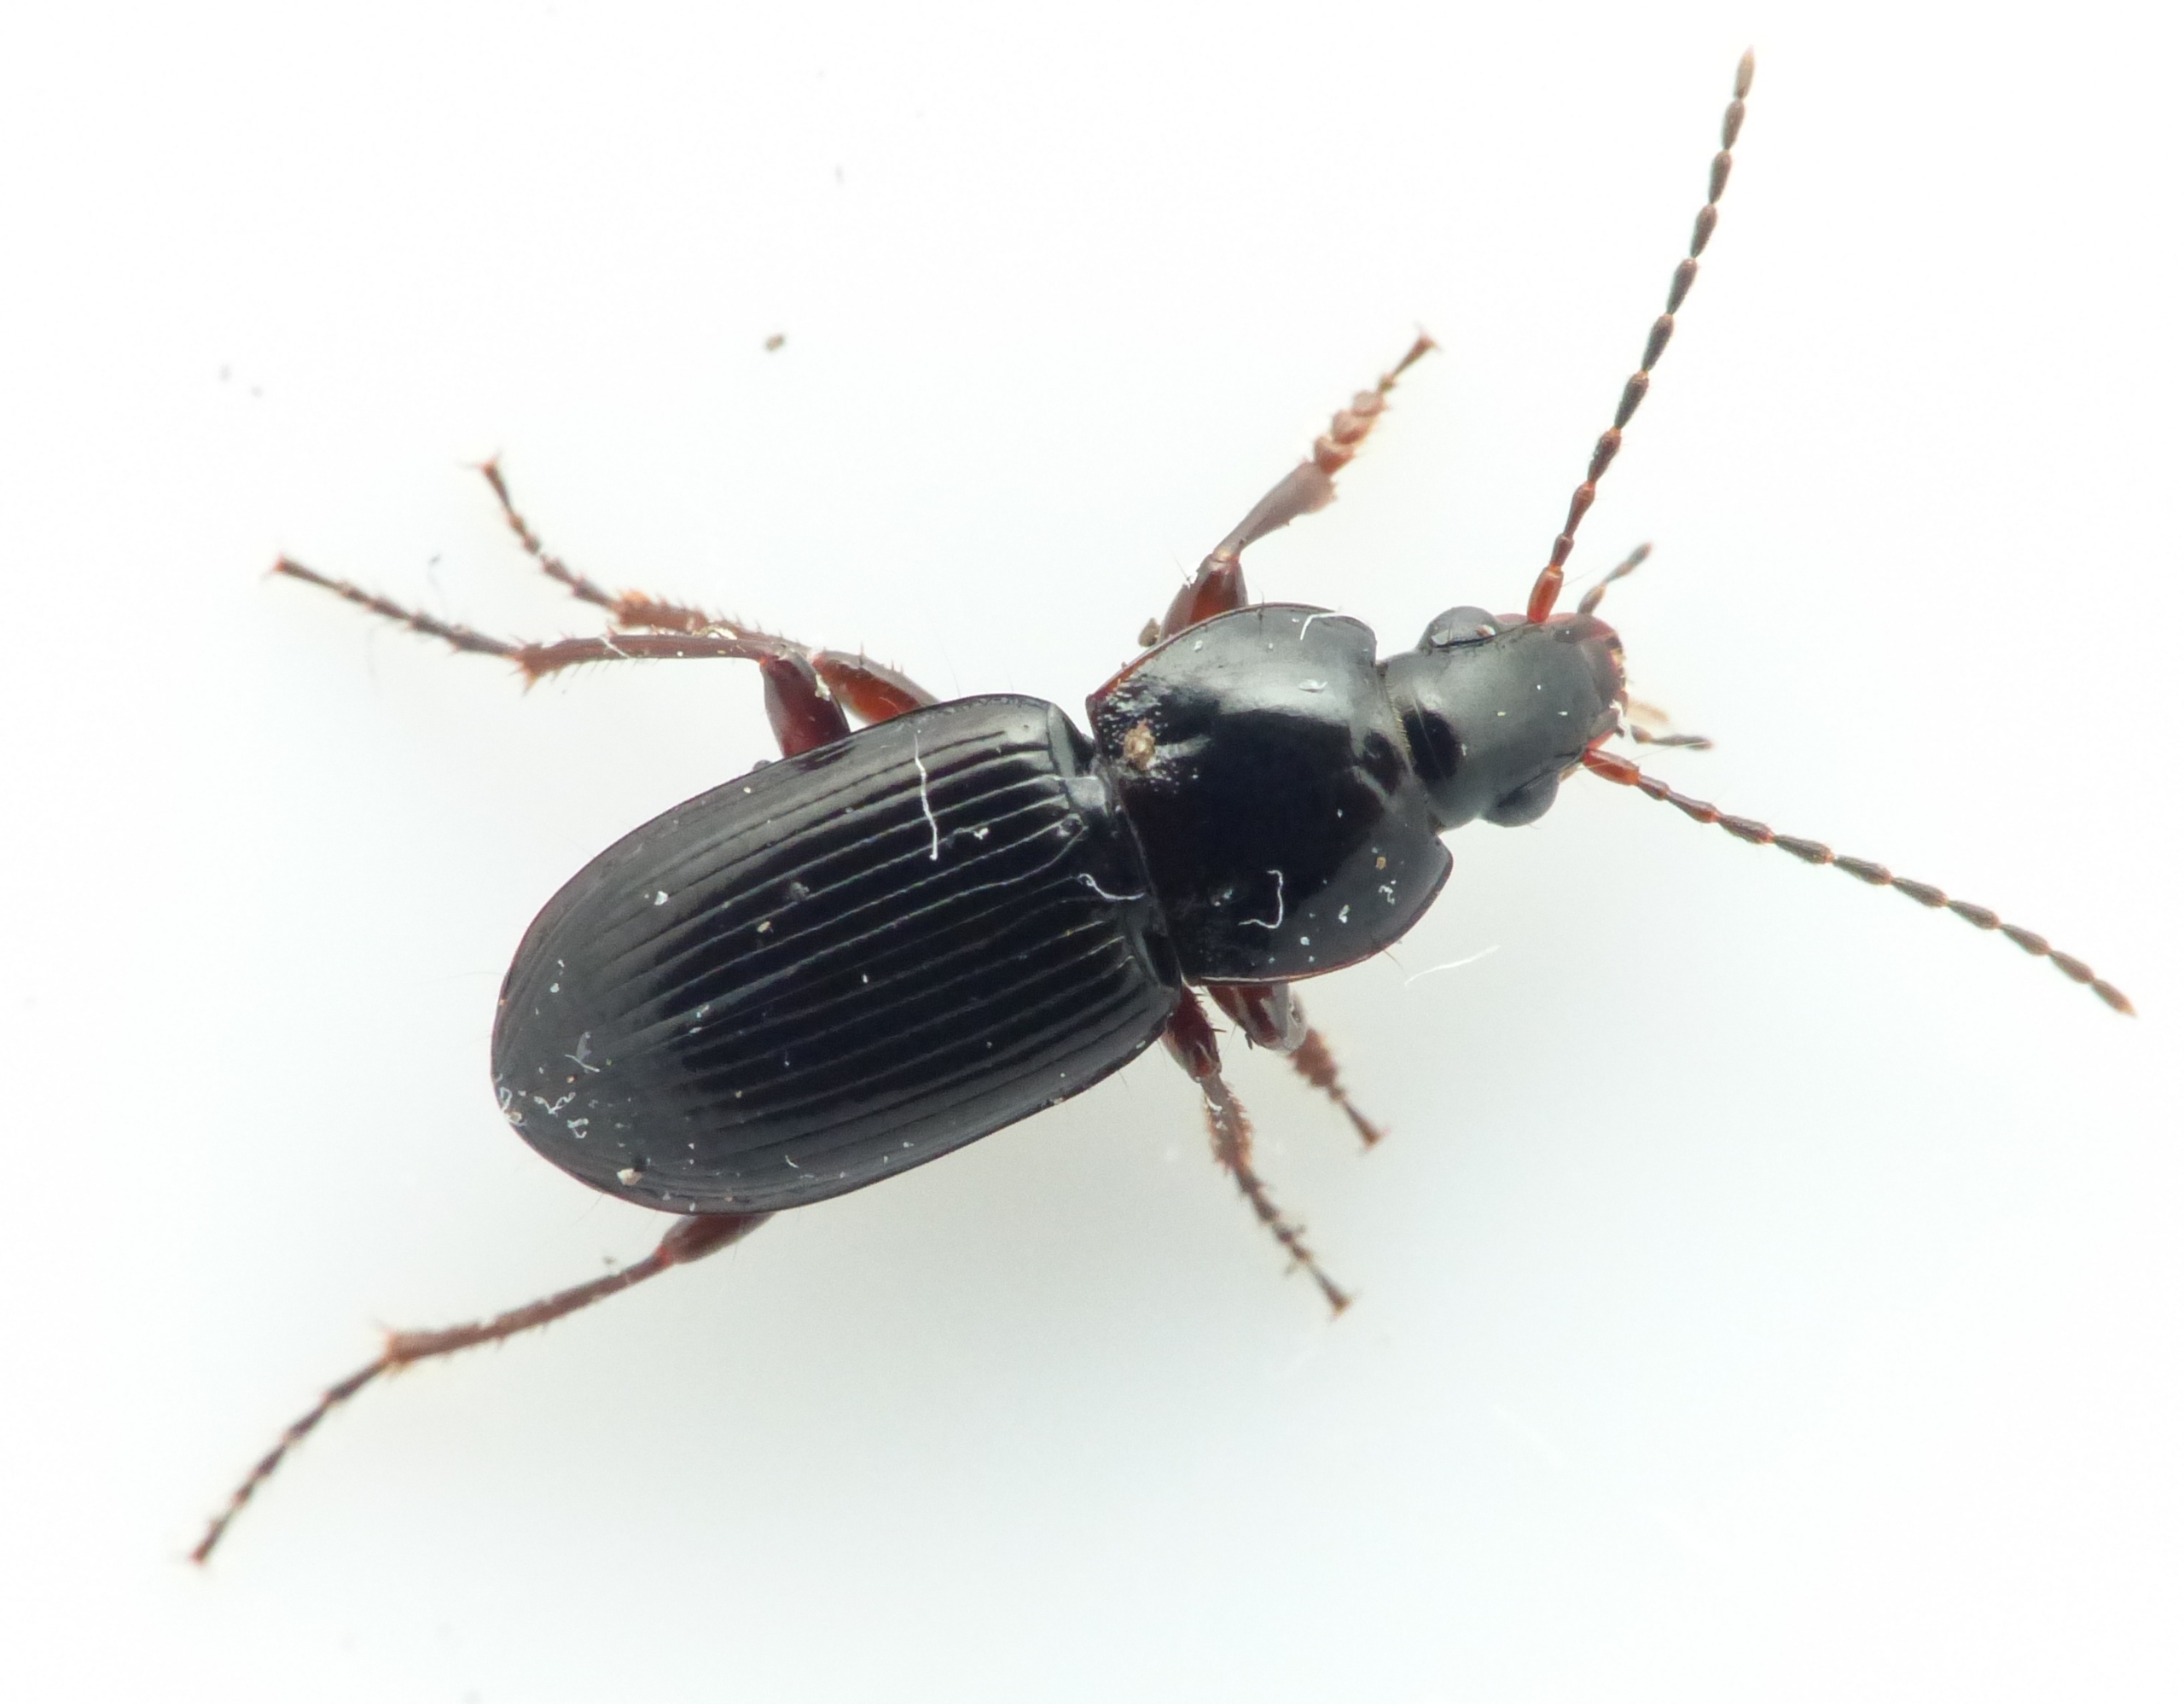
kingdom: Animalia
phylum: Arthropoda
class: Insecta
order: Coleoptera
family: Carabidae
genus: Pterostichus
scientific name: Pterostichus vernalis
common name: Uanselig jordløber
